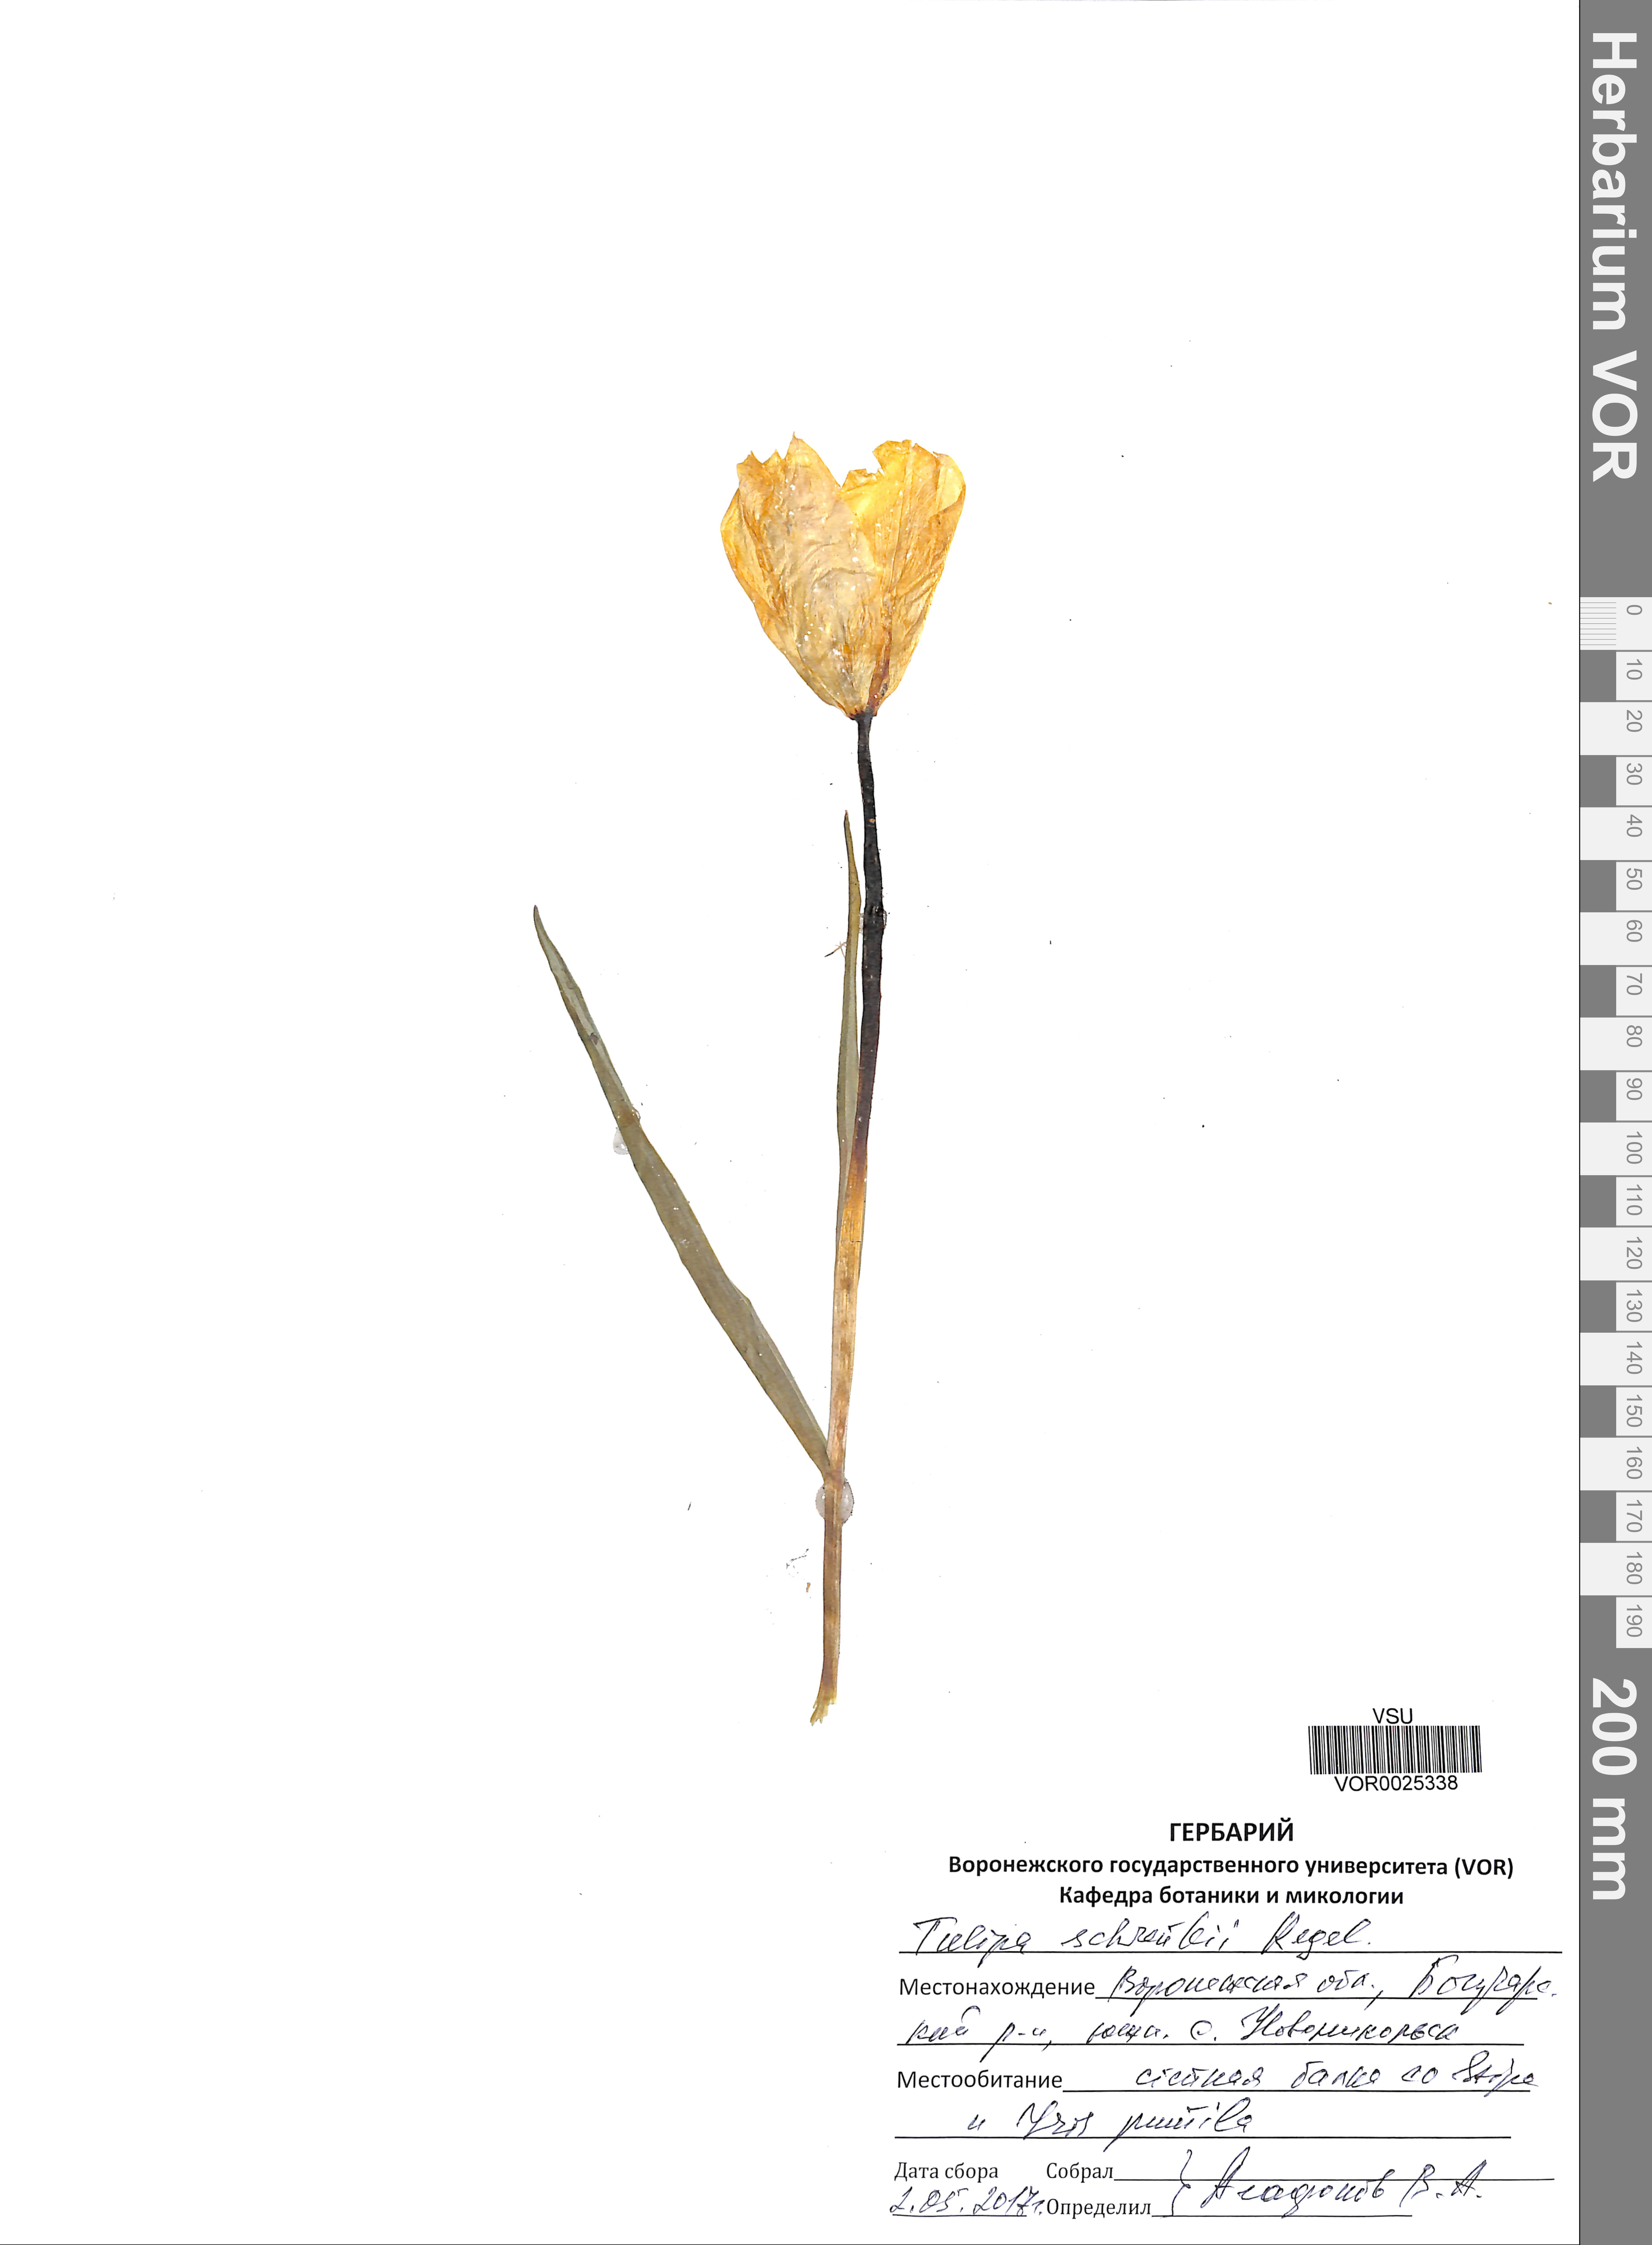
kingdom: Plantae
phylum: Tracheophyta
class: Liliopsida
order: Liliales
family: Liliaceae
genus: Tulipa
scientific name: Tulipa suaveolens
